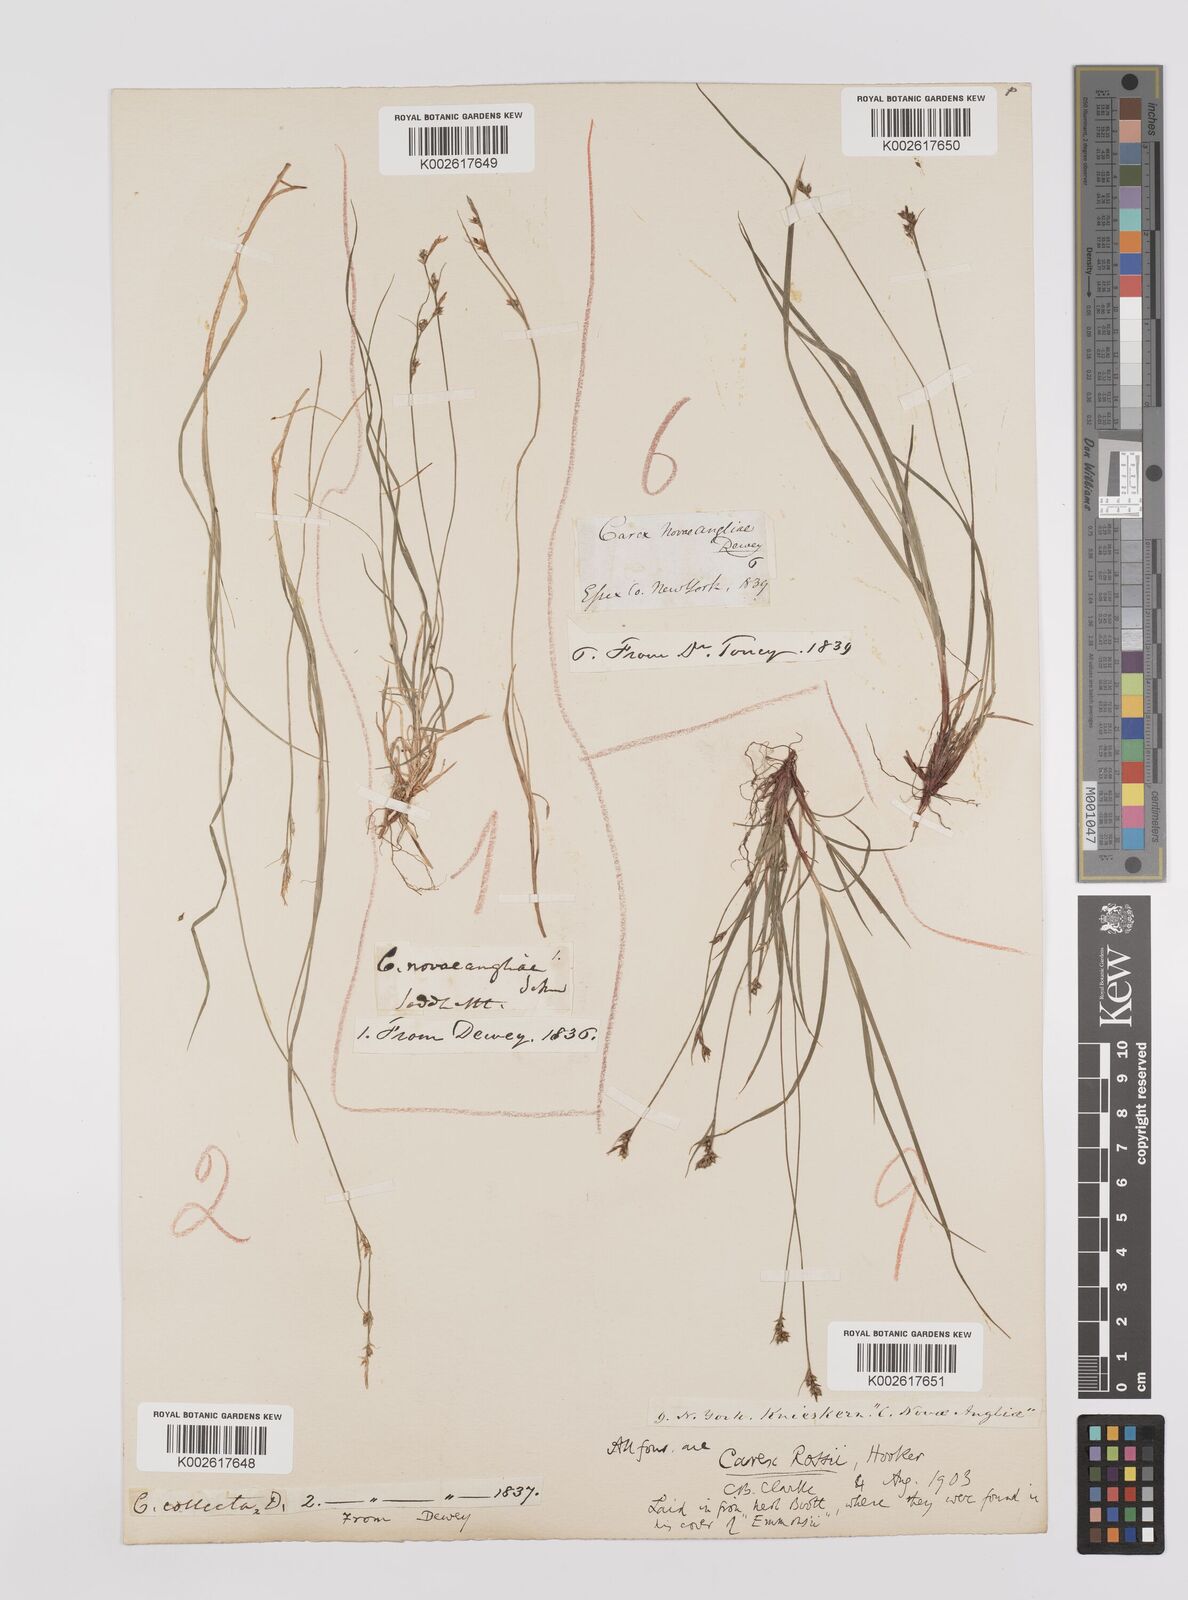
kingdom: Plantae
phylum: Tracheophyta
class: Liliopsida
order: Poales
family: Cyperaceae
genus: Carex
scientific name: Carex rossii
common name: Ross' sedge
